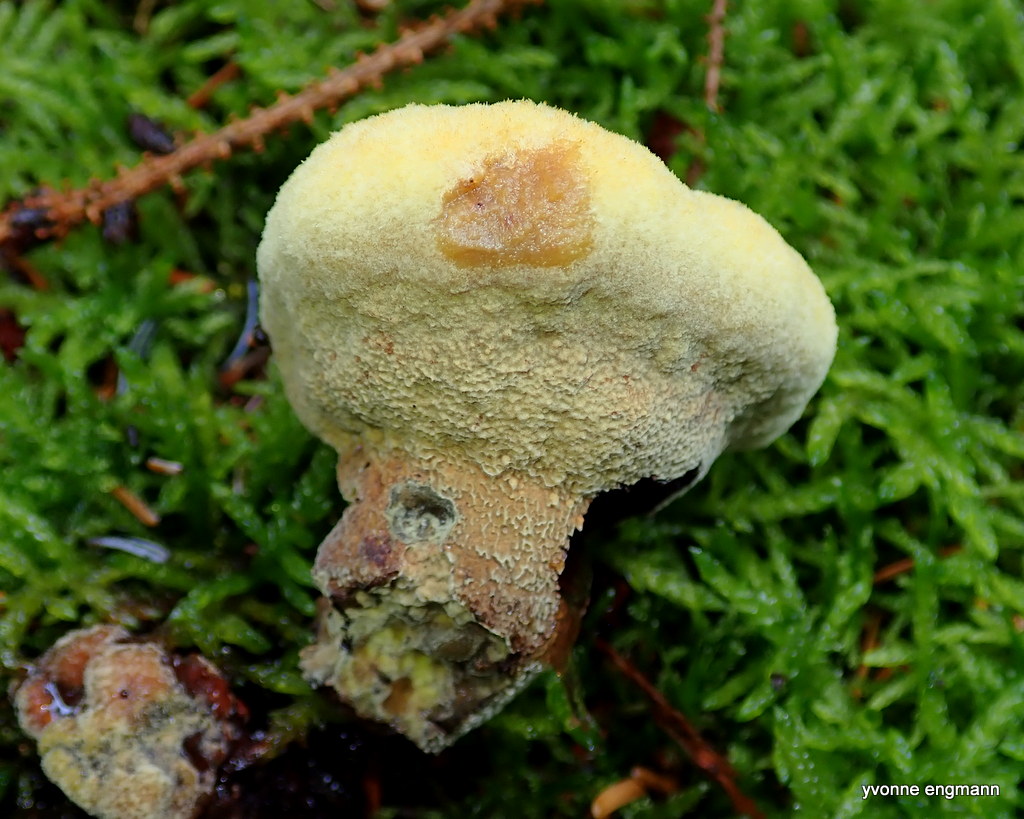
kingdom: Fungi
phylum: Basidiomycota
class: Agaricomycetes
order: Polyporales
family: Laetiporaceae
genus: Phaeolus
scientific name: Phaeolus schweinitzii
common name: brunporesvamp
